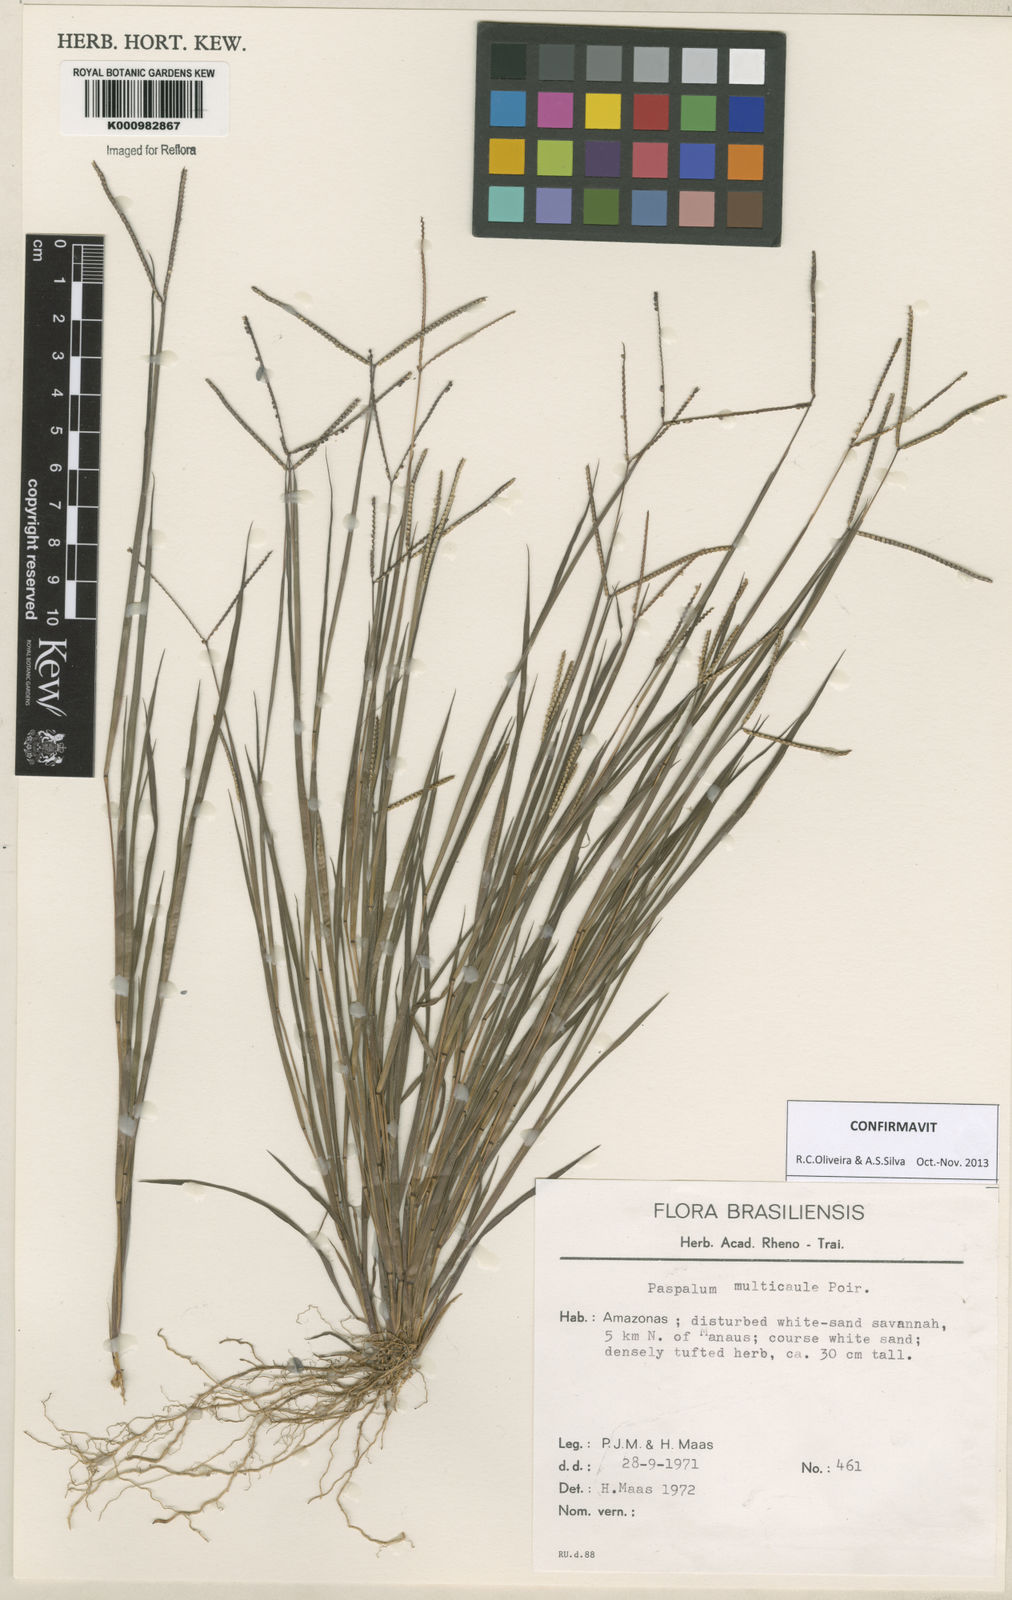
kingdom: Plantae
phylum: Tracheophyta
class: Liliopsida
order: Poales
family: Poaceae
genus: Paspalum
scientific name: Paspalum multicaule
